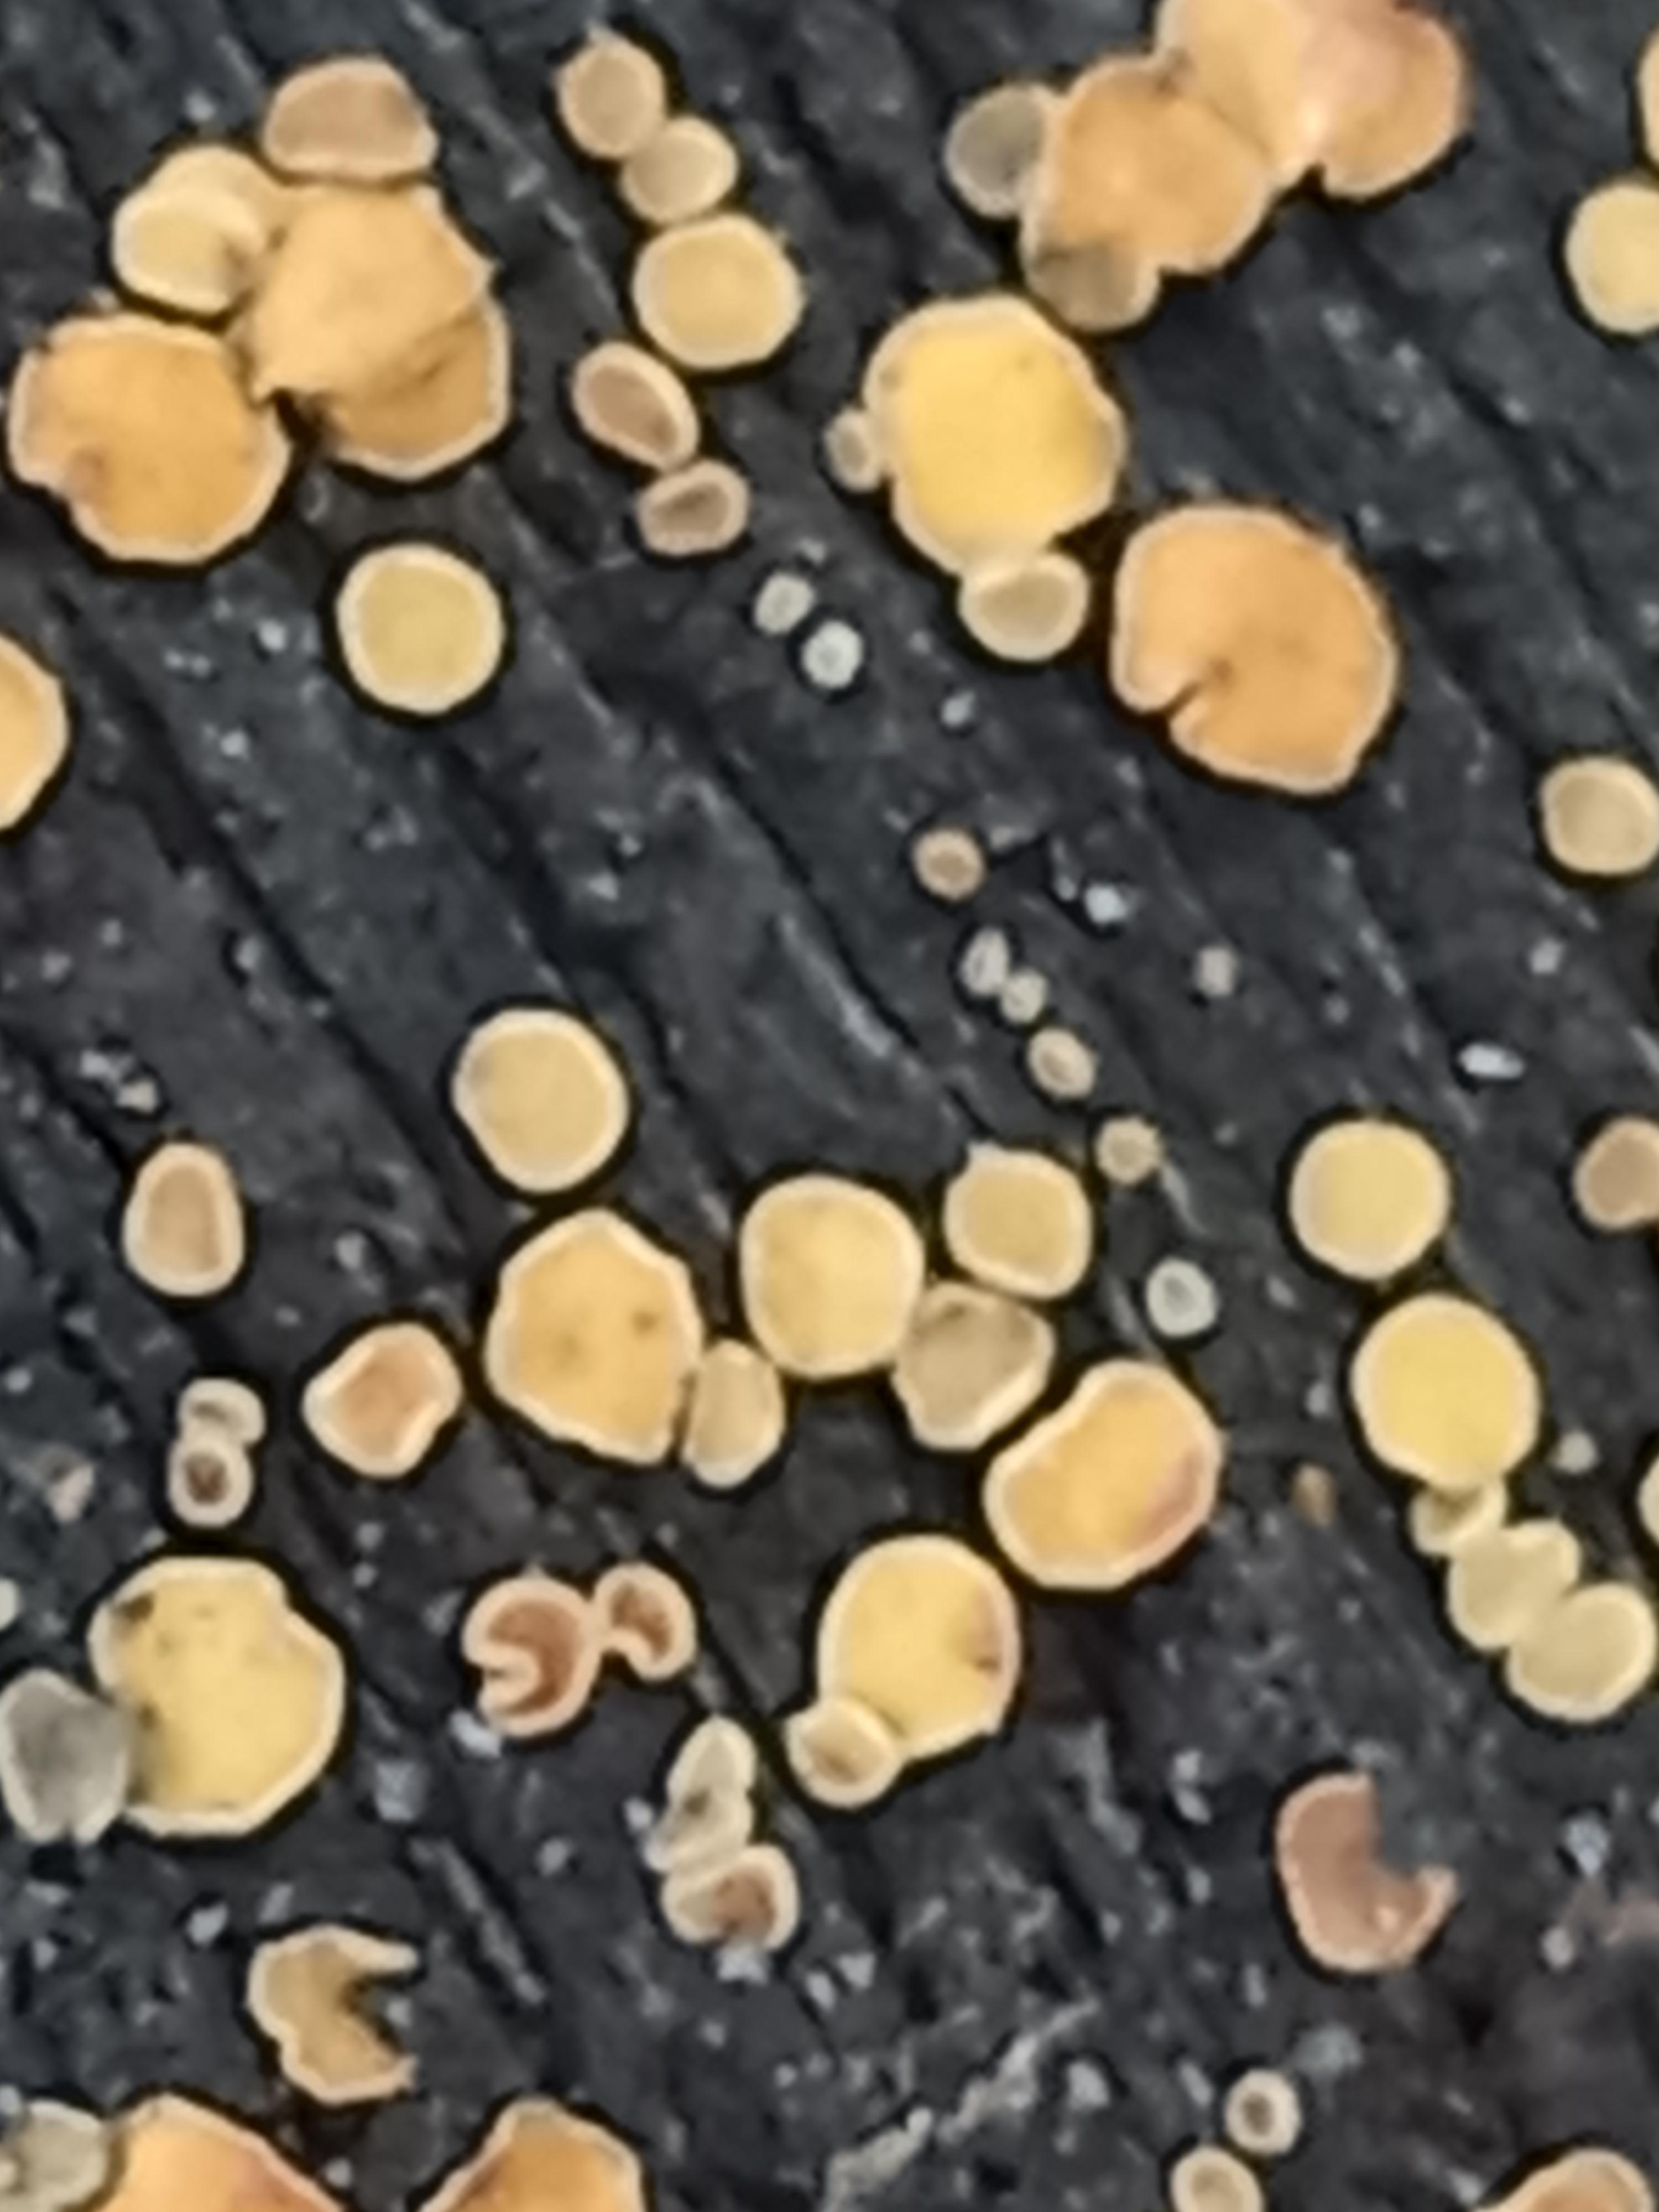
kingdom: Fungi
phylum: Ascomycota
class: Leotiomycetes
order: Helotiales
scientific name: Helotiales
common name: stilkskiveordenen
